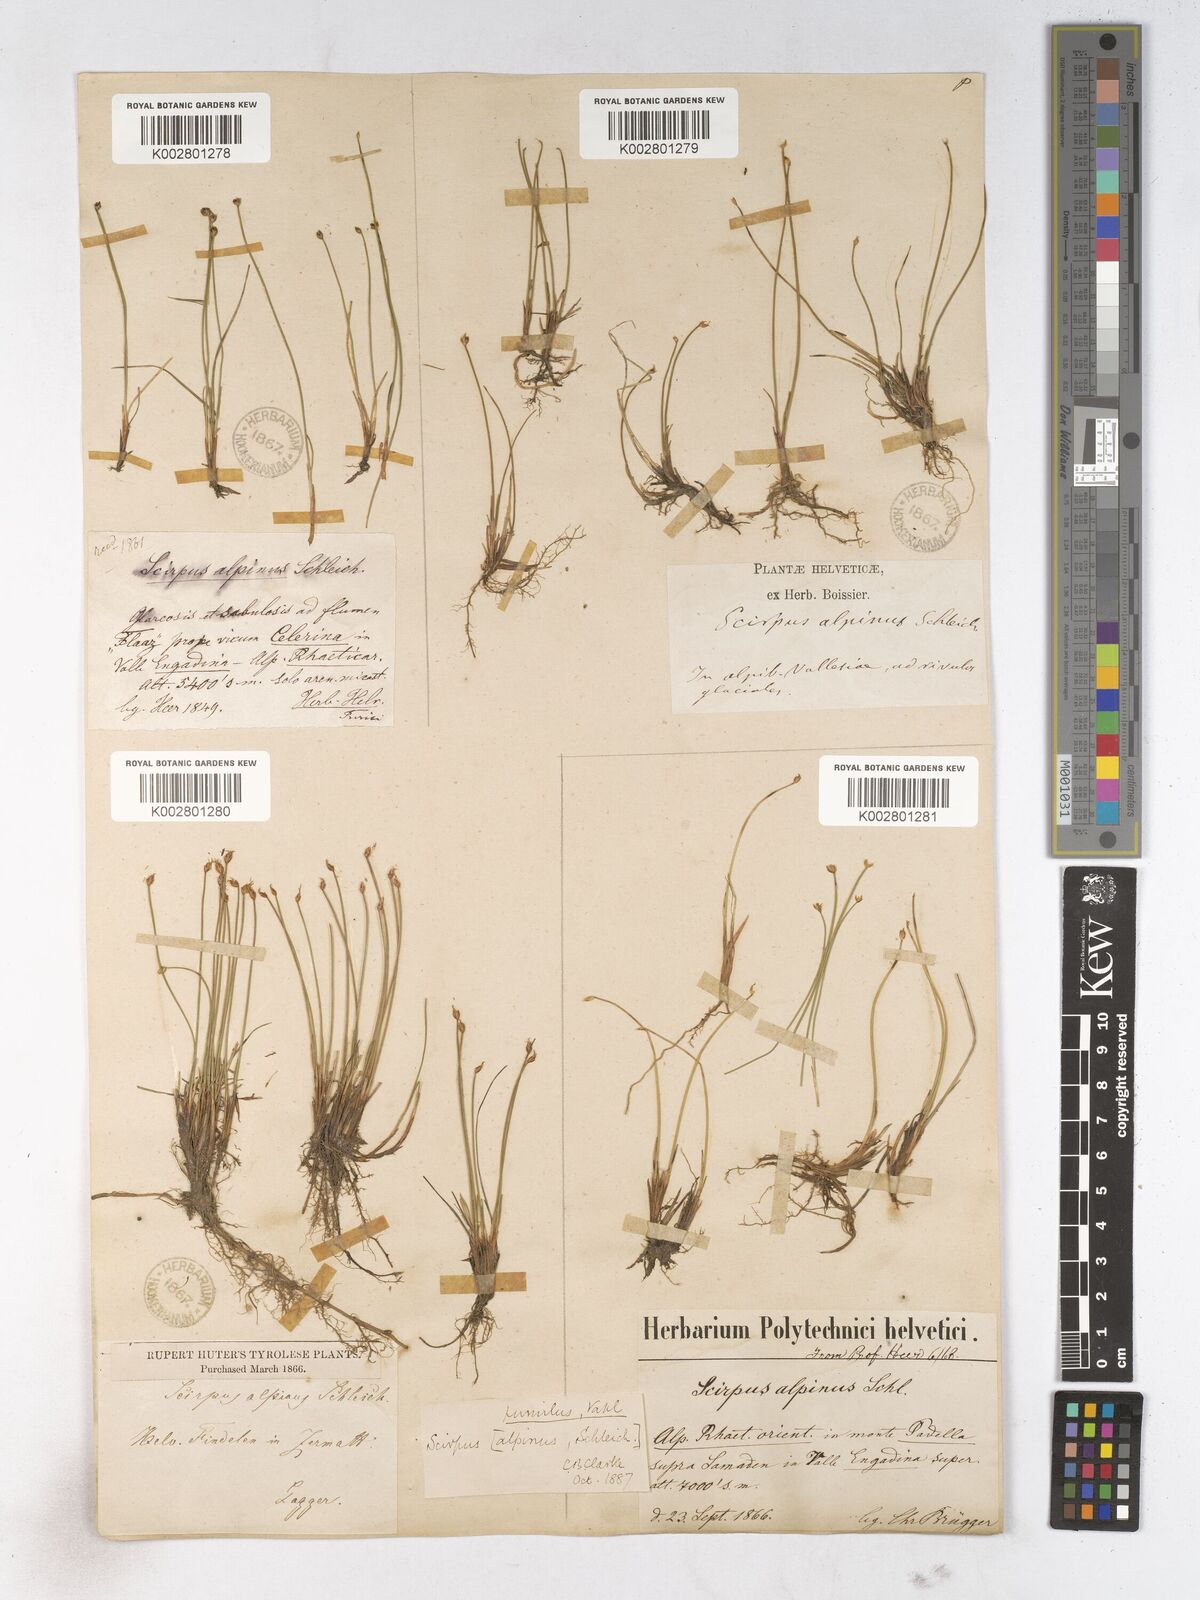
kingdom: Plantae
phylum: Tracheophyta
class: Liliopsida
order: Poales
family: Cyperaceae
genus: Trichophorum
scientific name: Trichophorum pumilum
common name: Rolland's bulrush
